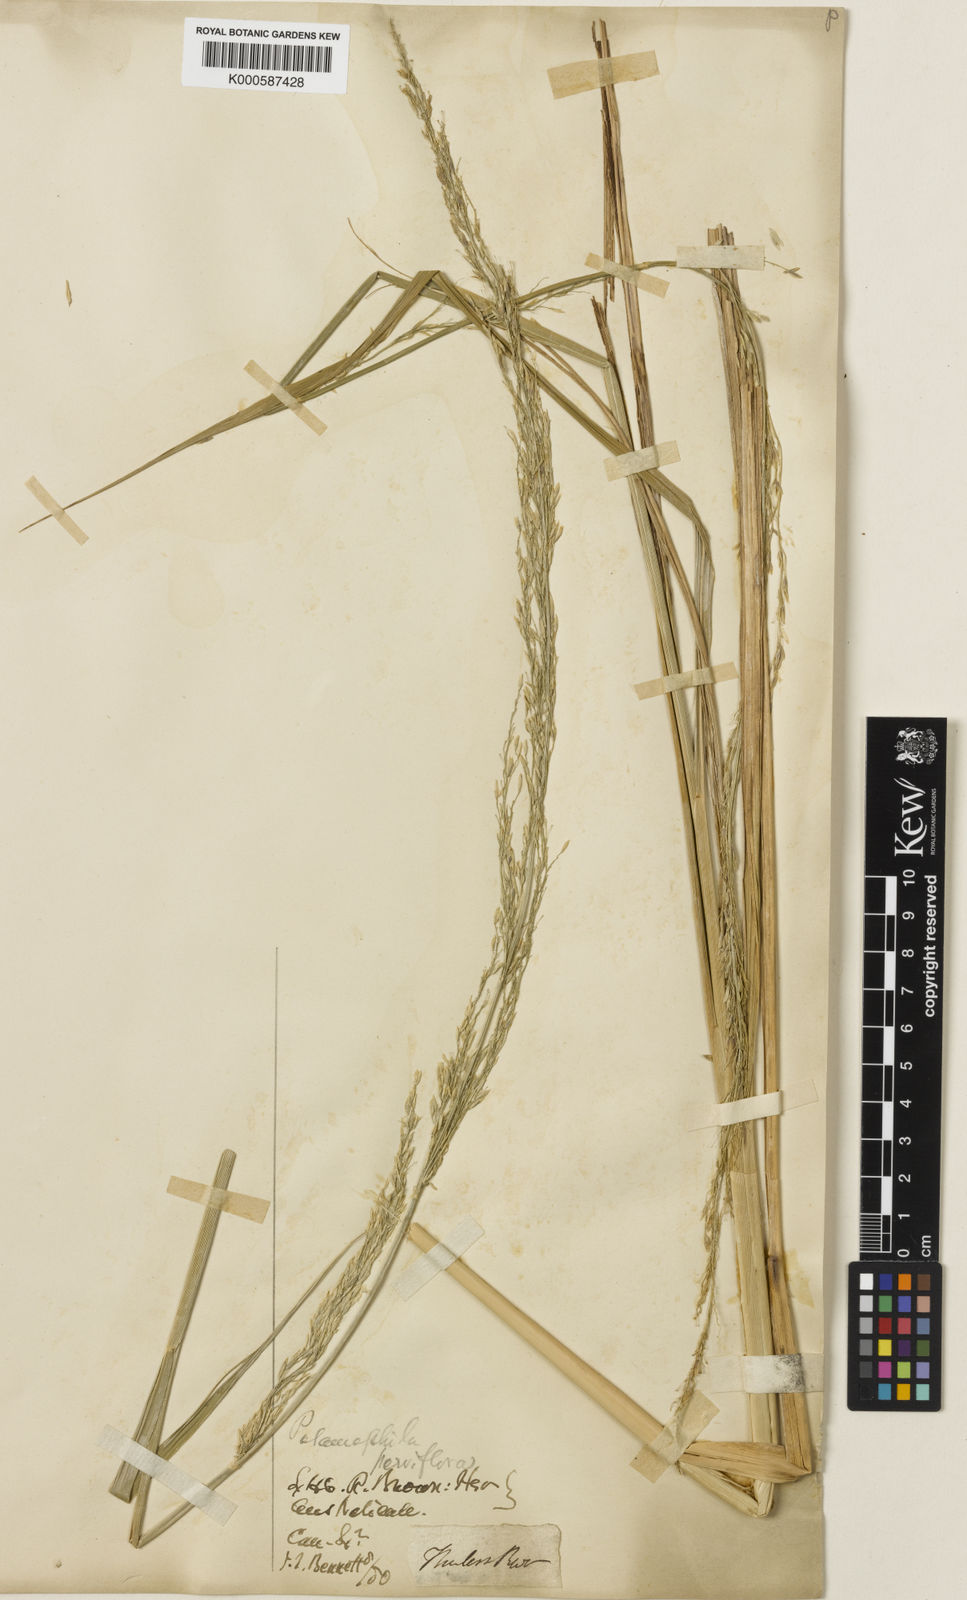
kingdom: Plantae
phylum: Tracheophyta
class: Liliopsida
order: Poales
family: Poaceae
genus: Potamophila
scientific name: Potamophila parviflora
